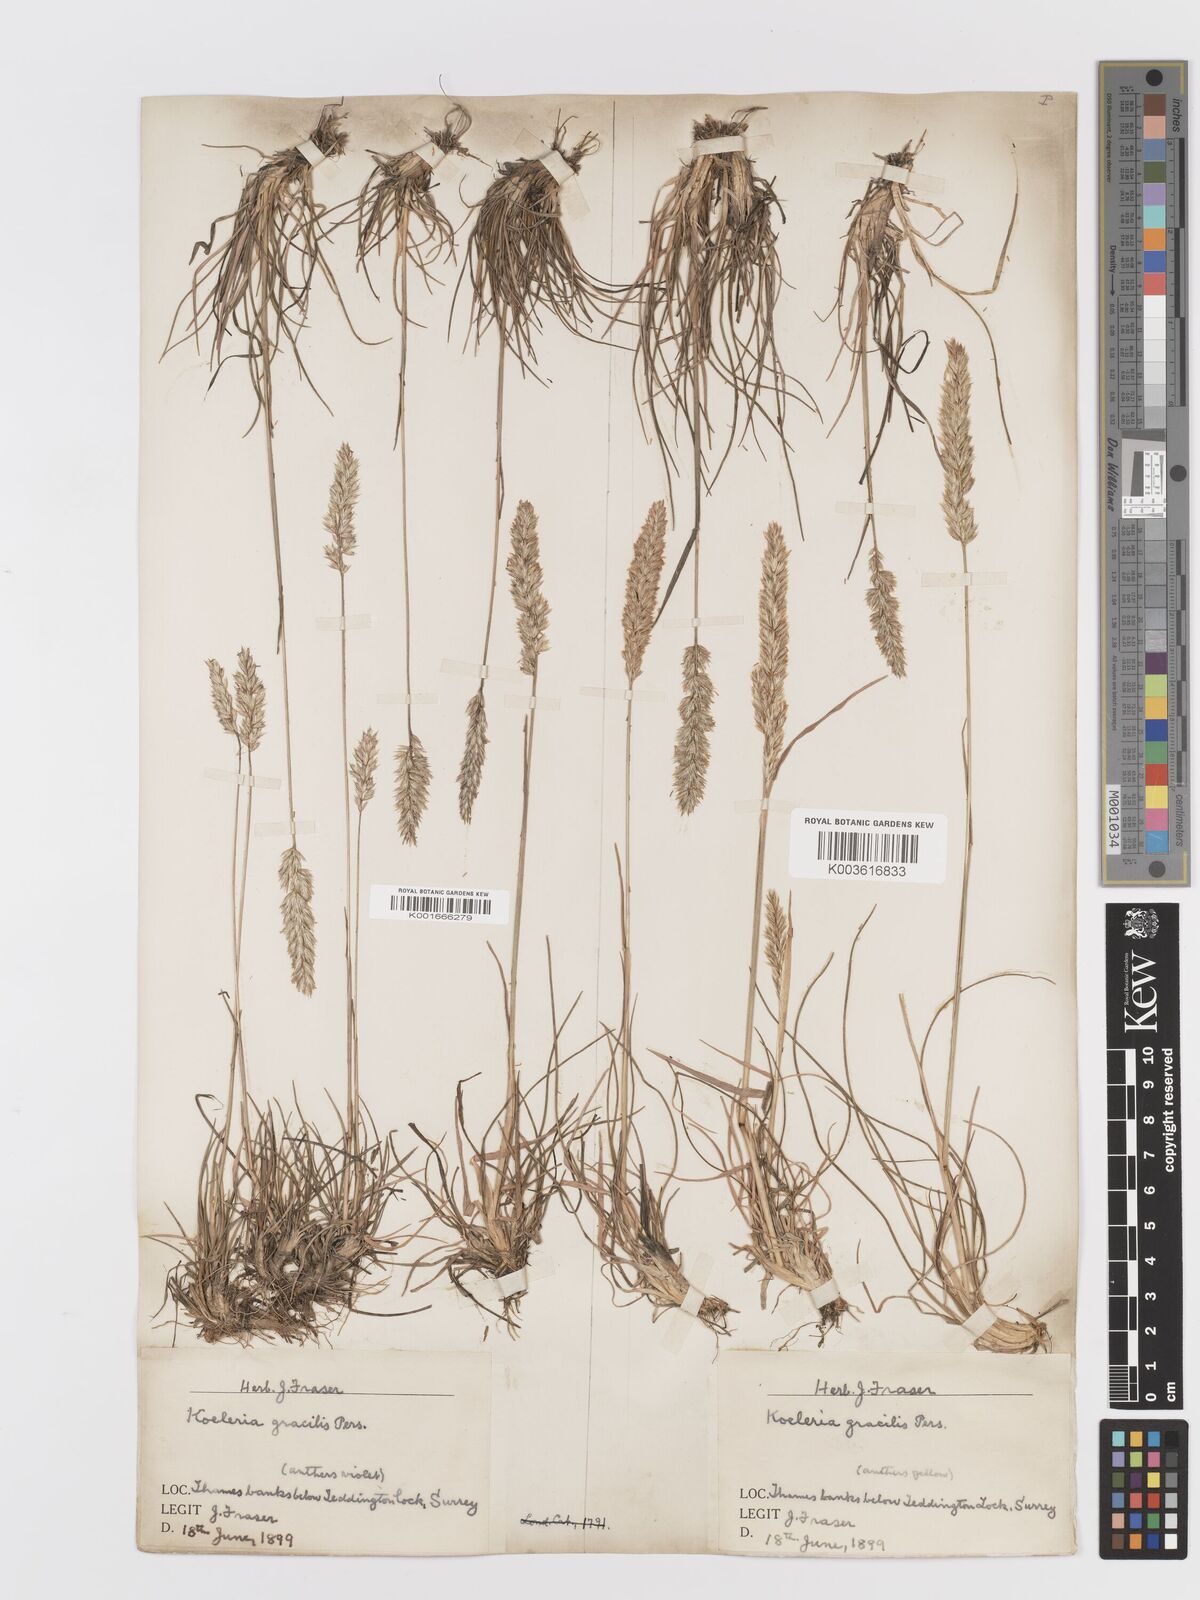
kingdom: Plantae
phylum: Tracheophyta
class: Liliopsida
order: Poales
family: Poaceae
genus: Koeleria
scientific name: Koeleria macrantha
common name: Crested hair-grass
